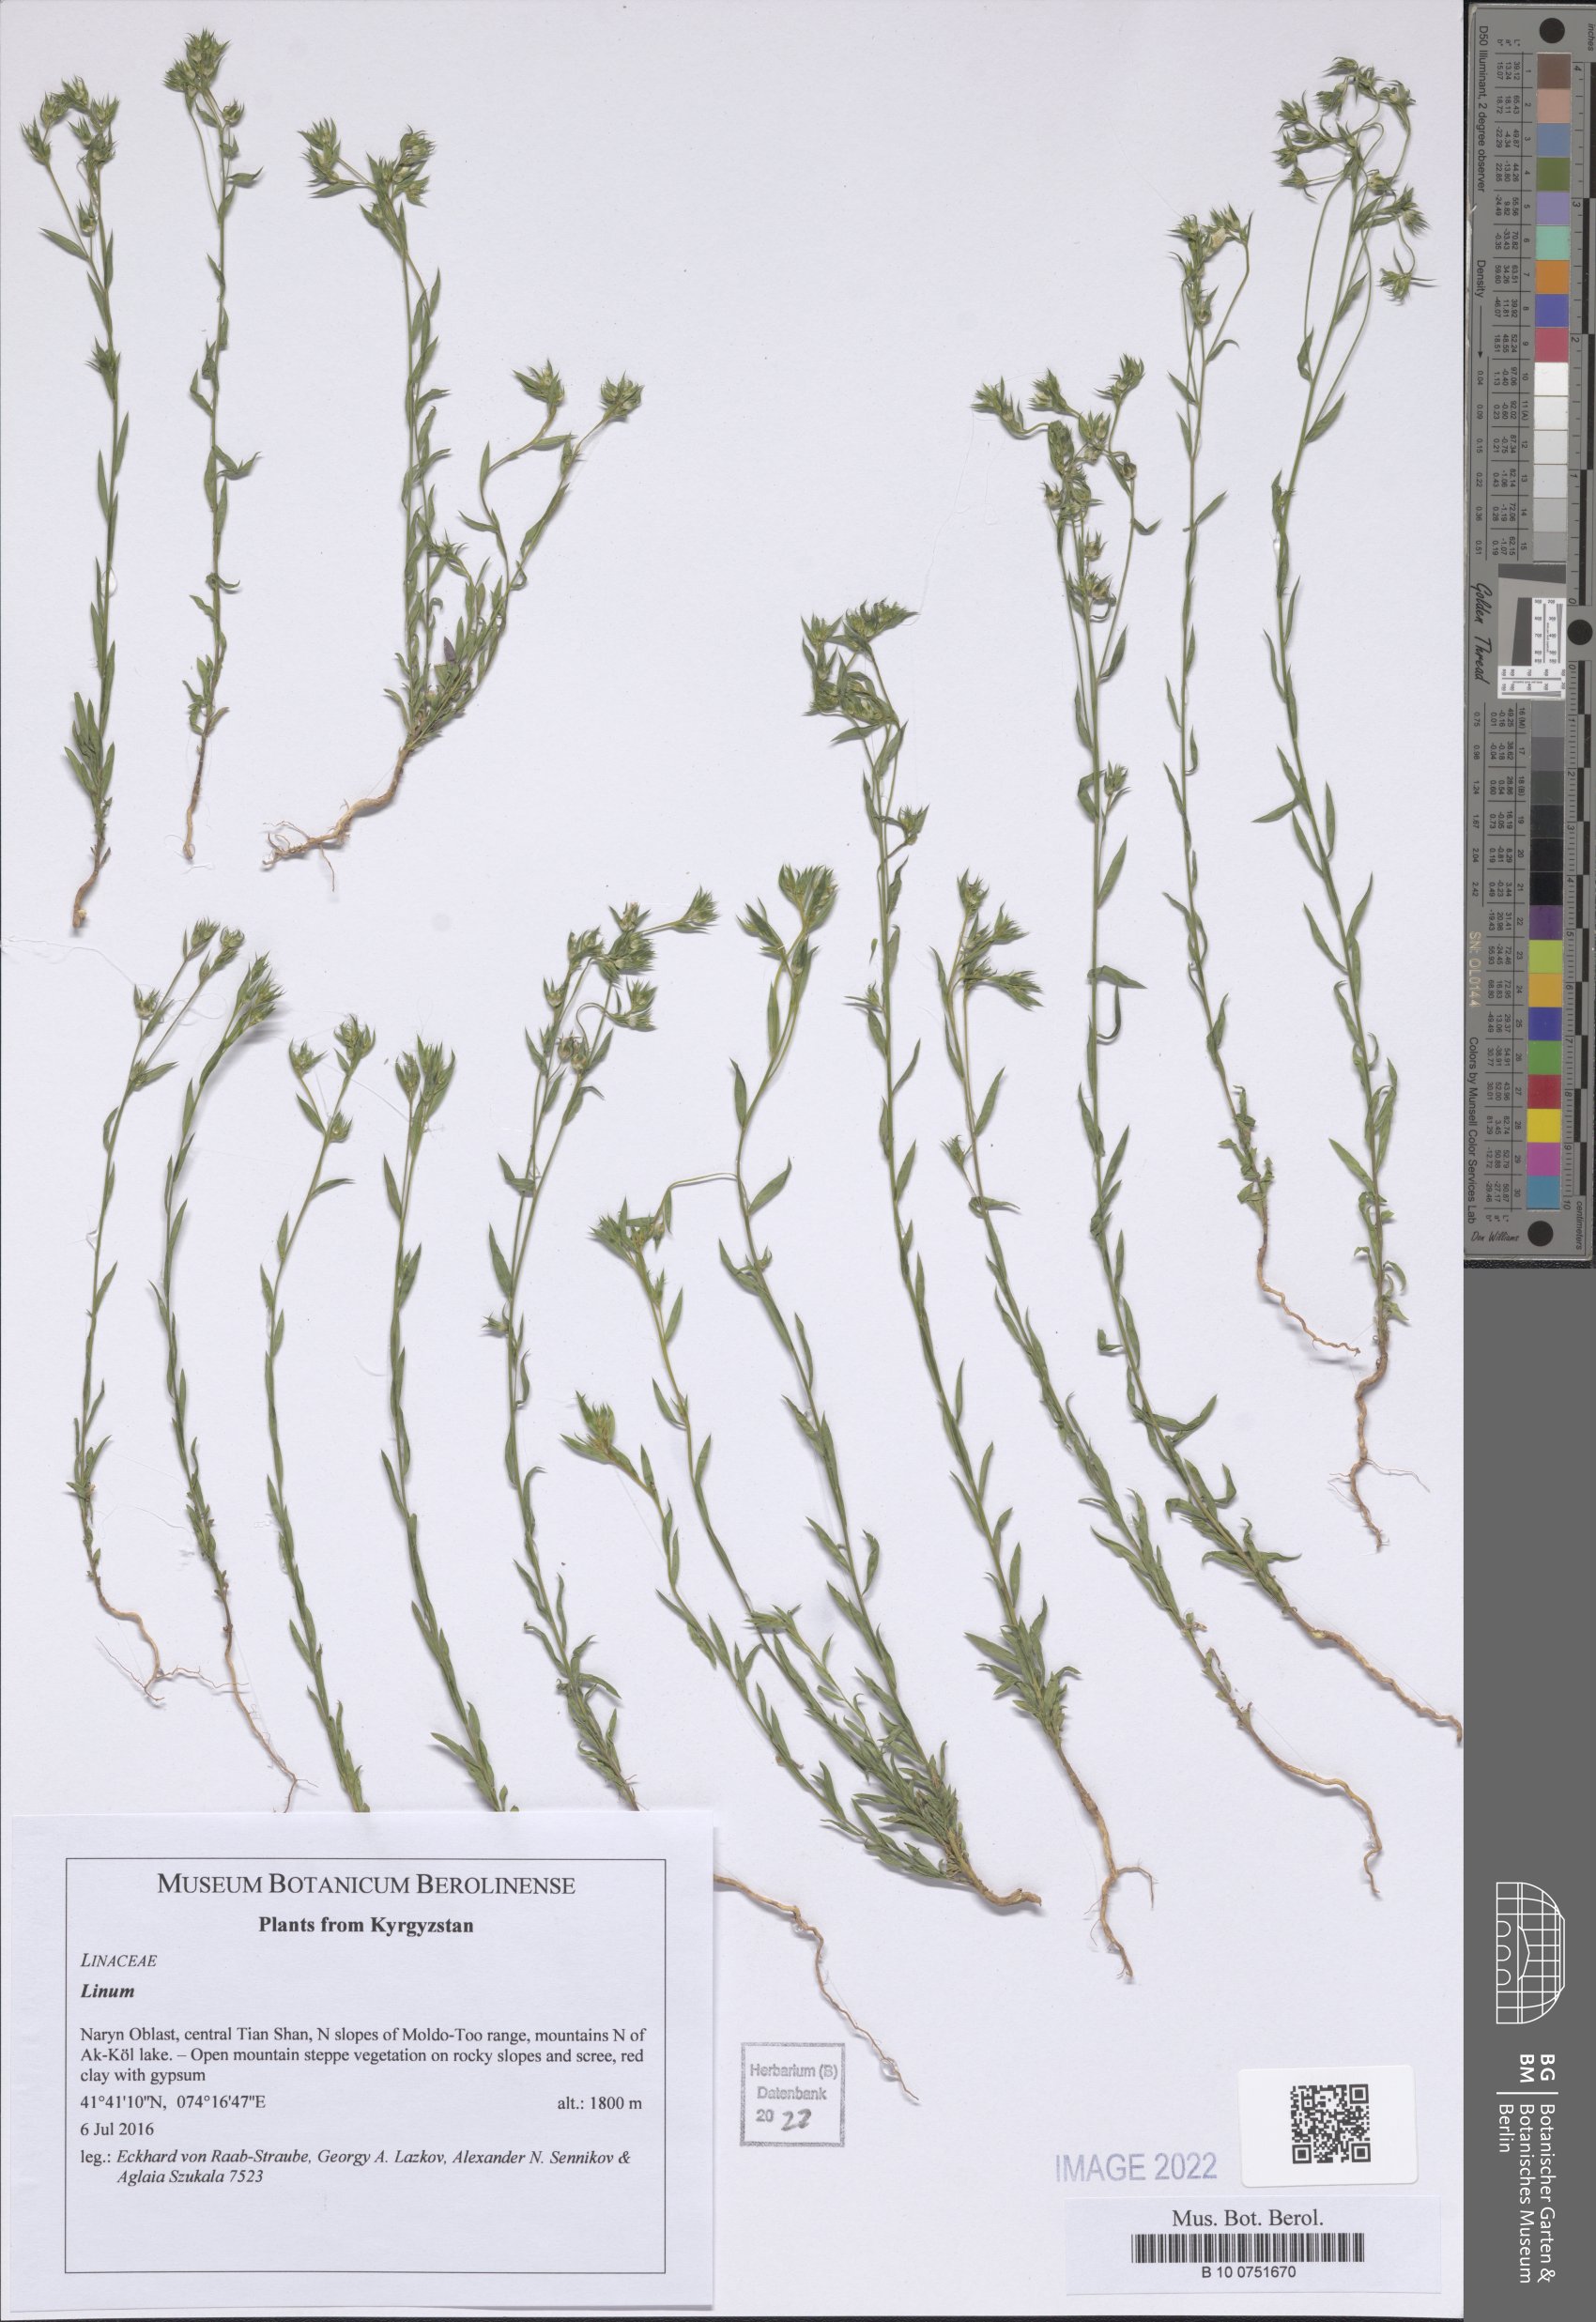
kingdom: Plantae
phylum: Tracheophyta
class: Magnoliopsida
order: Malpighiales
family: Linaceae
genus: Linum
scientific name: Linum
